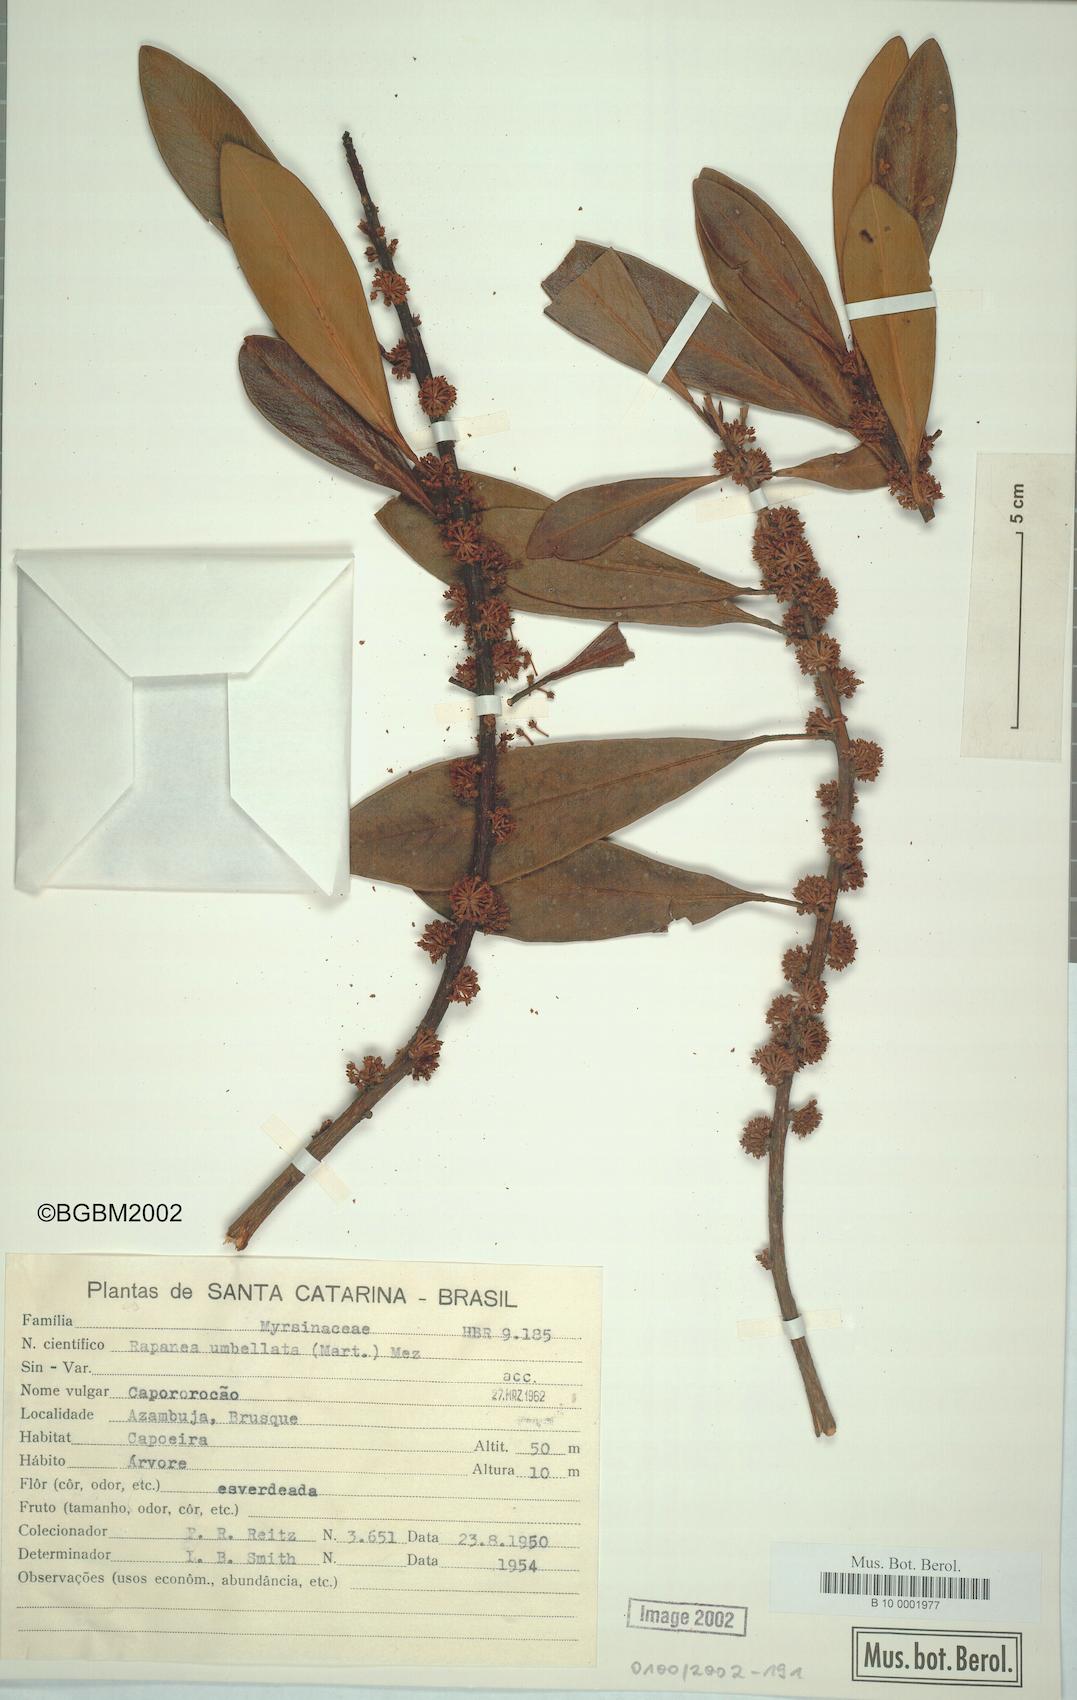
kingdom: Plantae
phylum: Tracheophyta
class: Magnoliopsida
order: Ericales
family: Primulaceae
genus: Myrsine
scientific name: Myrsine umbellata
